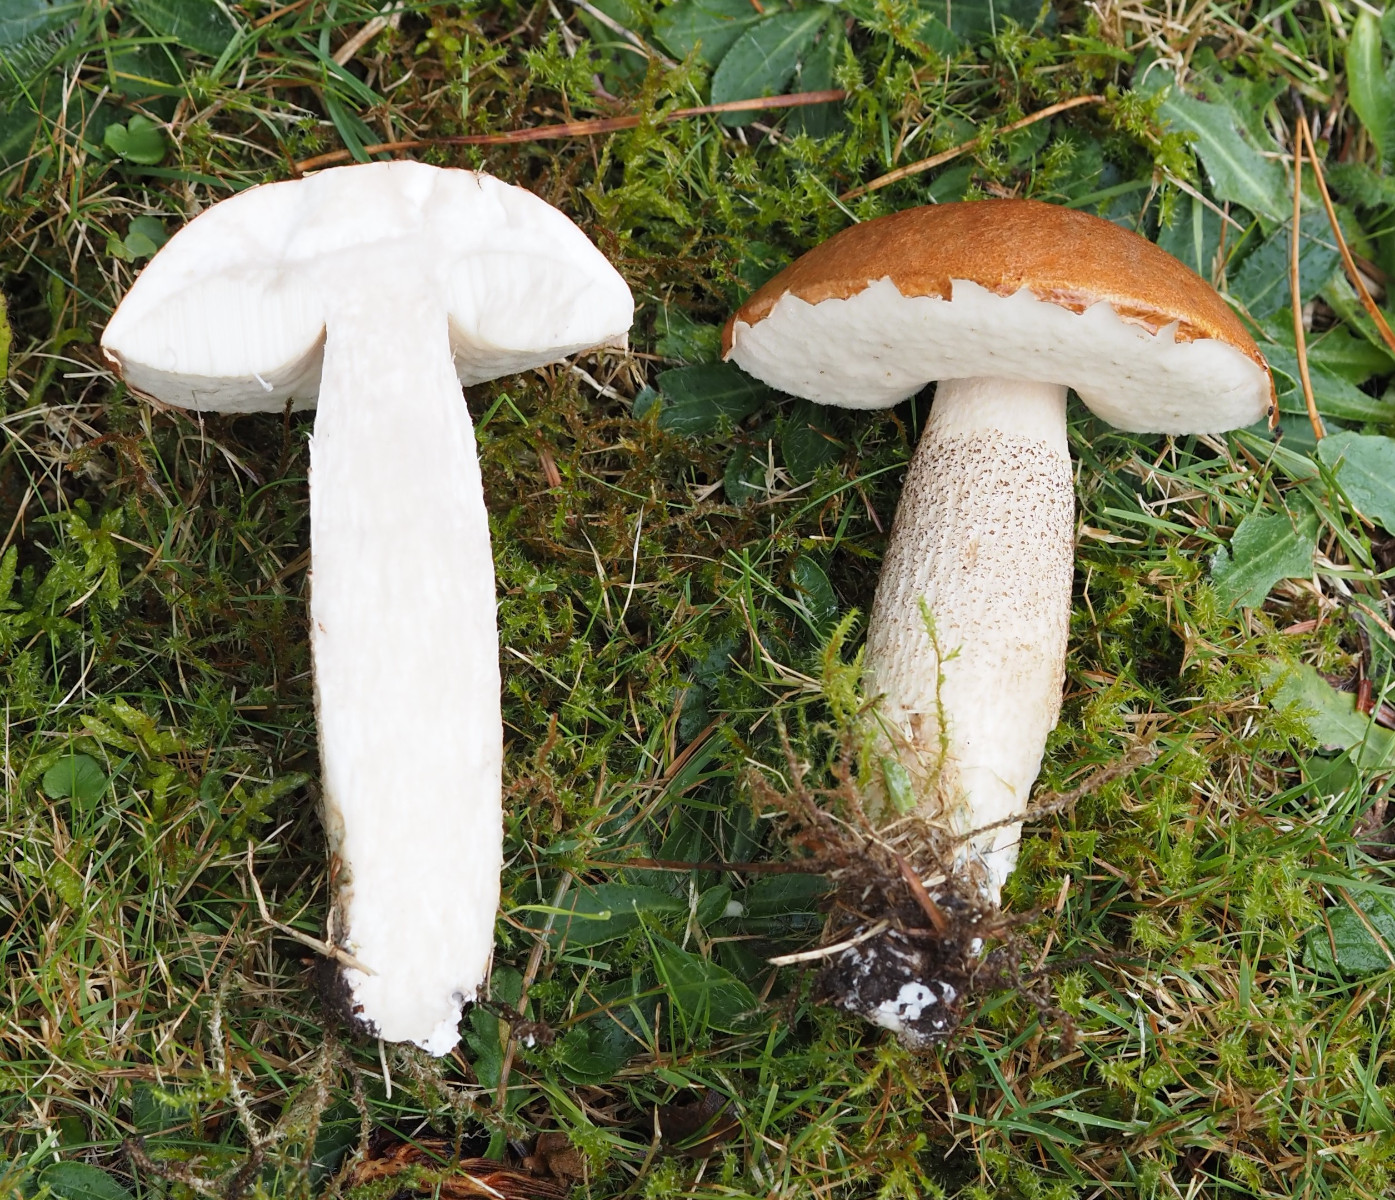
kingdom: Fungi
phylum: Basidiomycota
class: Agaricomycetes
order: Boletales
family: Boletaceae
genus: Leccinum
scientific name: Leccinum albostipitatum
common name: aspe-skælrørhat
